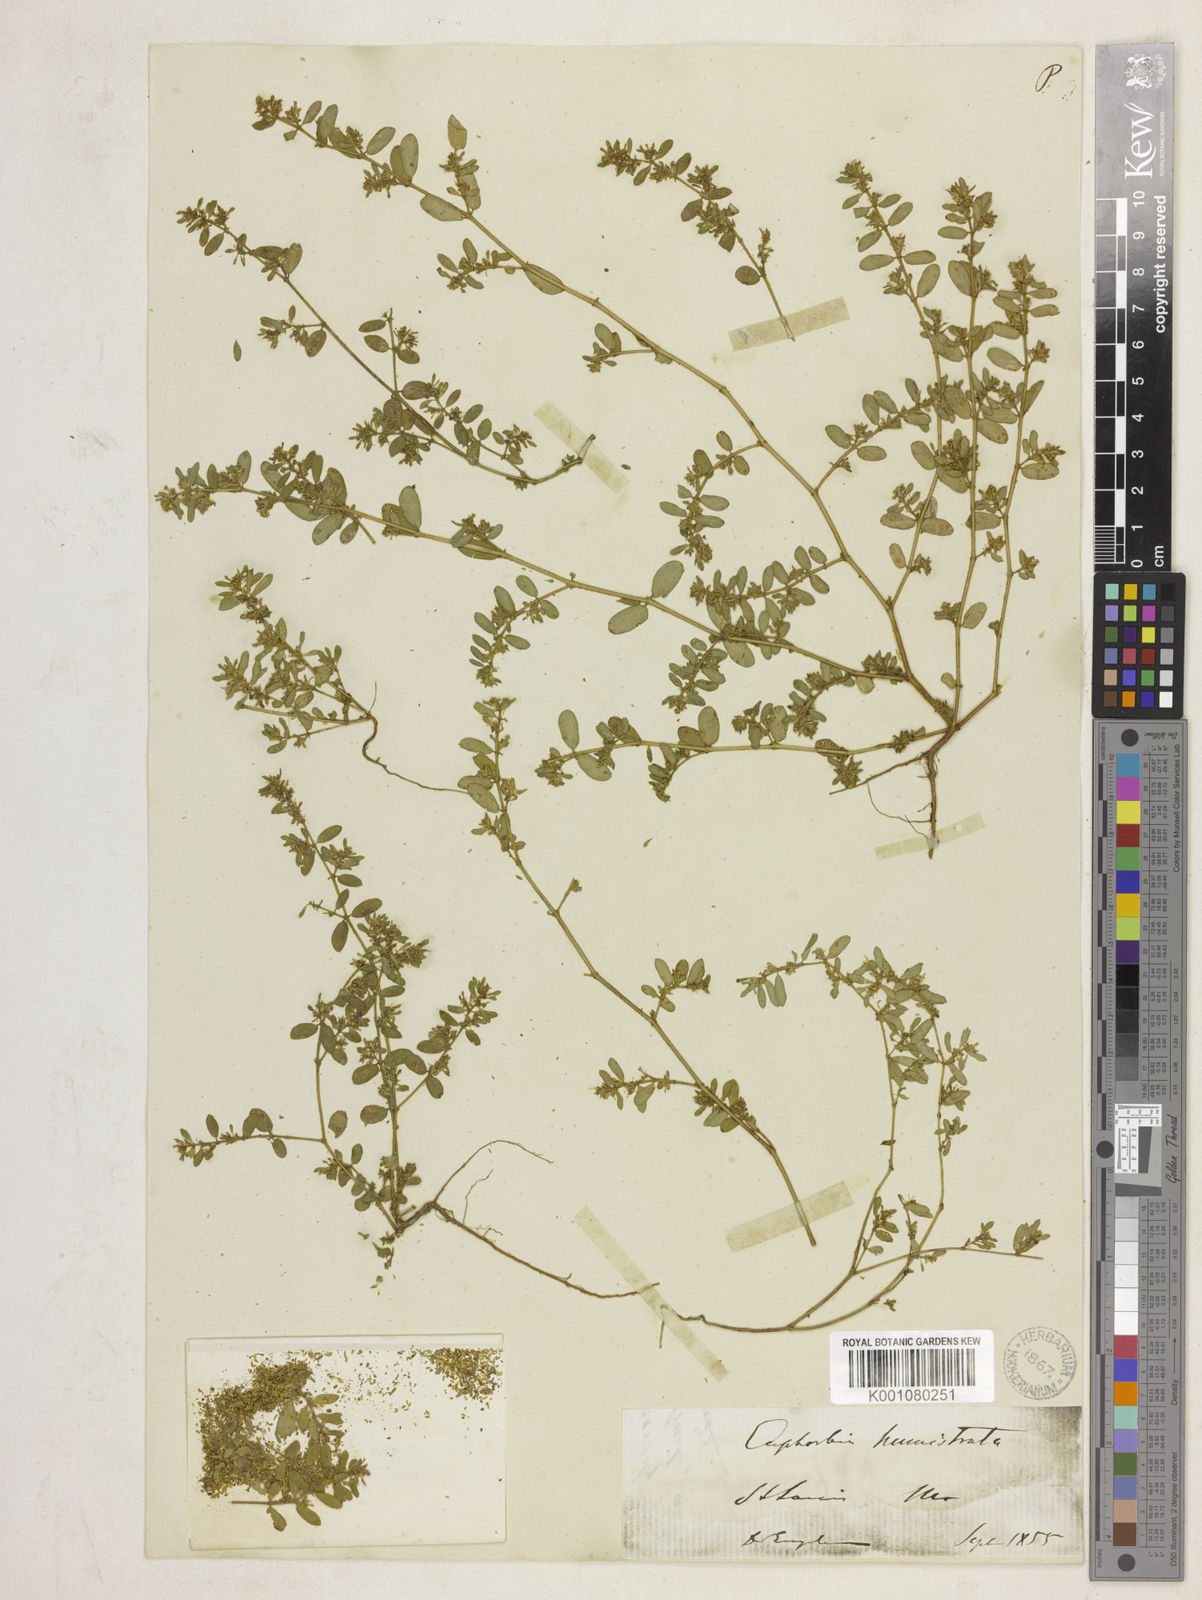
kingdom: Plantae
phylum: Tracheophyta
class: Magnoliopsida
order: Malpighiales
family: Euphorbiaceae
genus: Euphorbia
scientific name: Euphorbia
